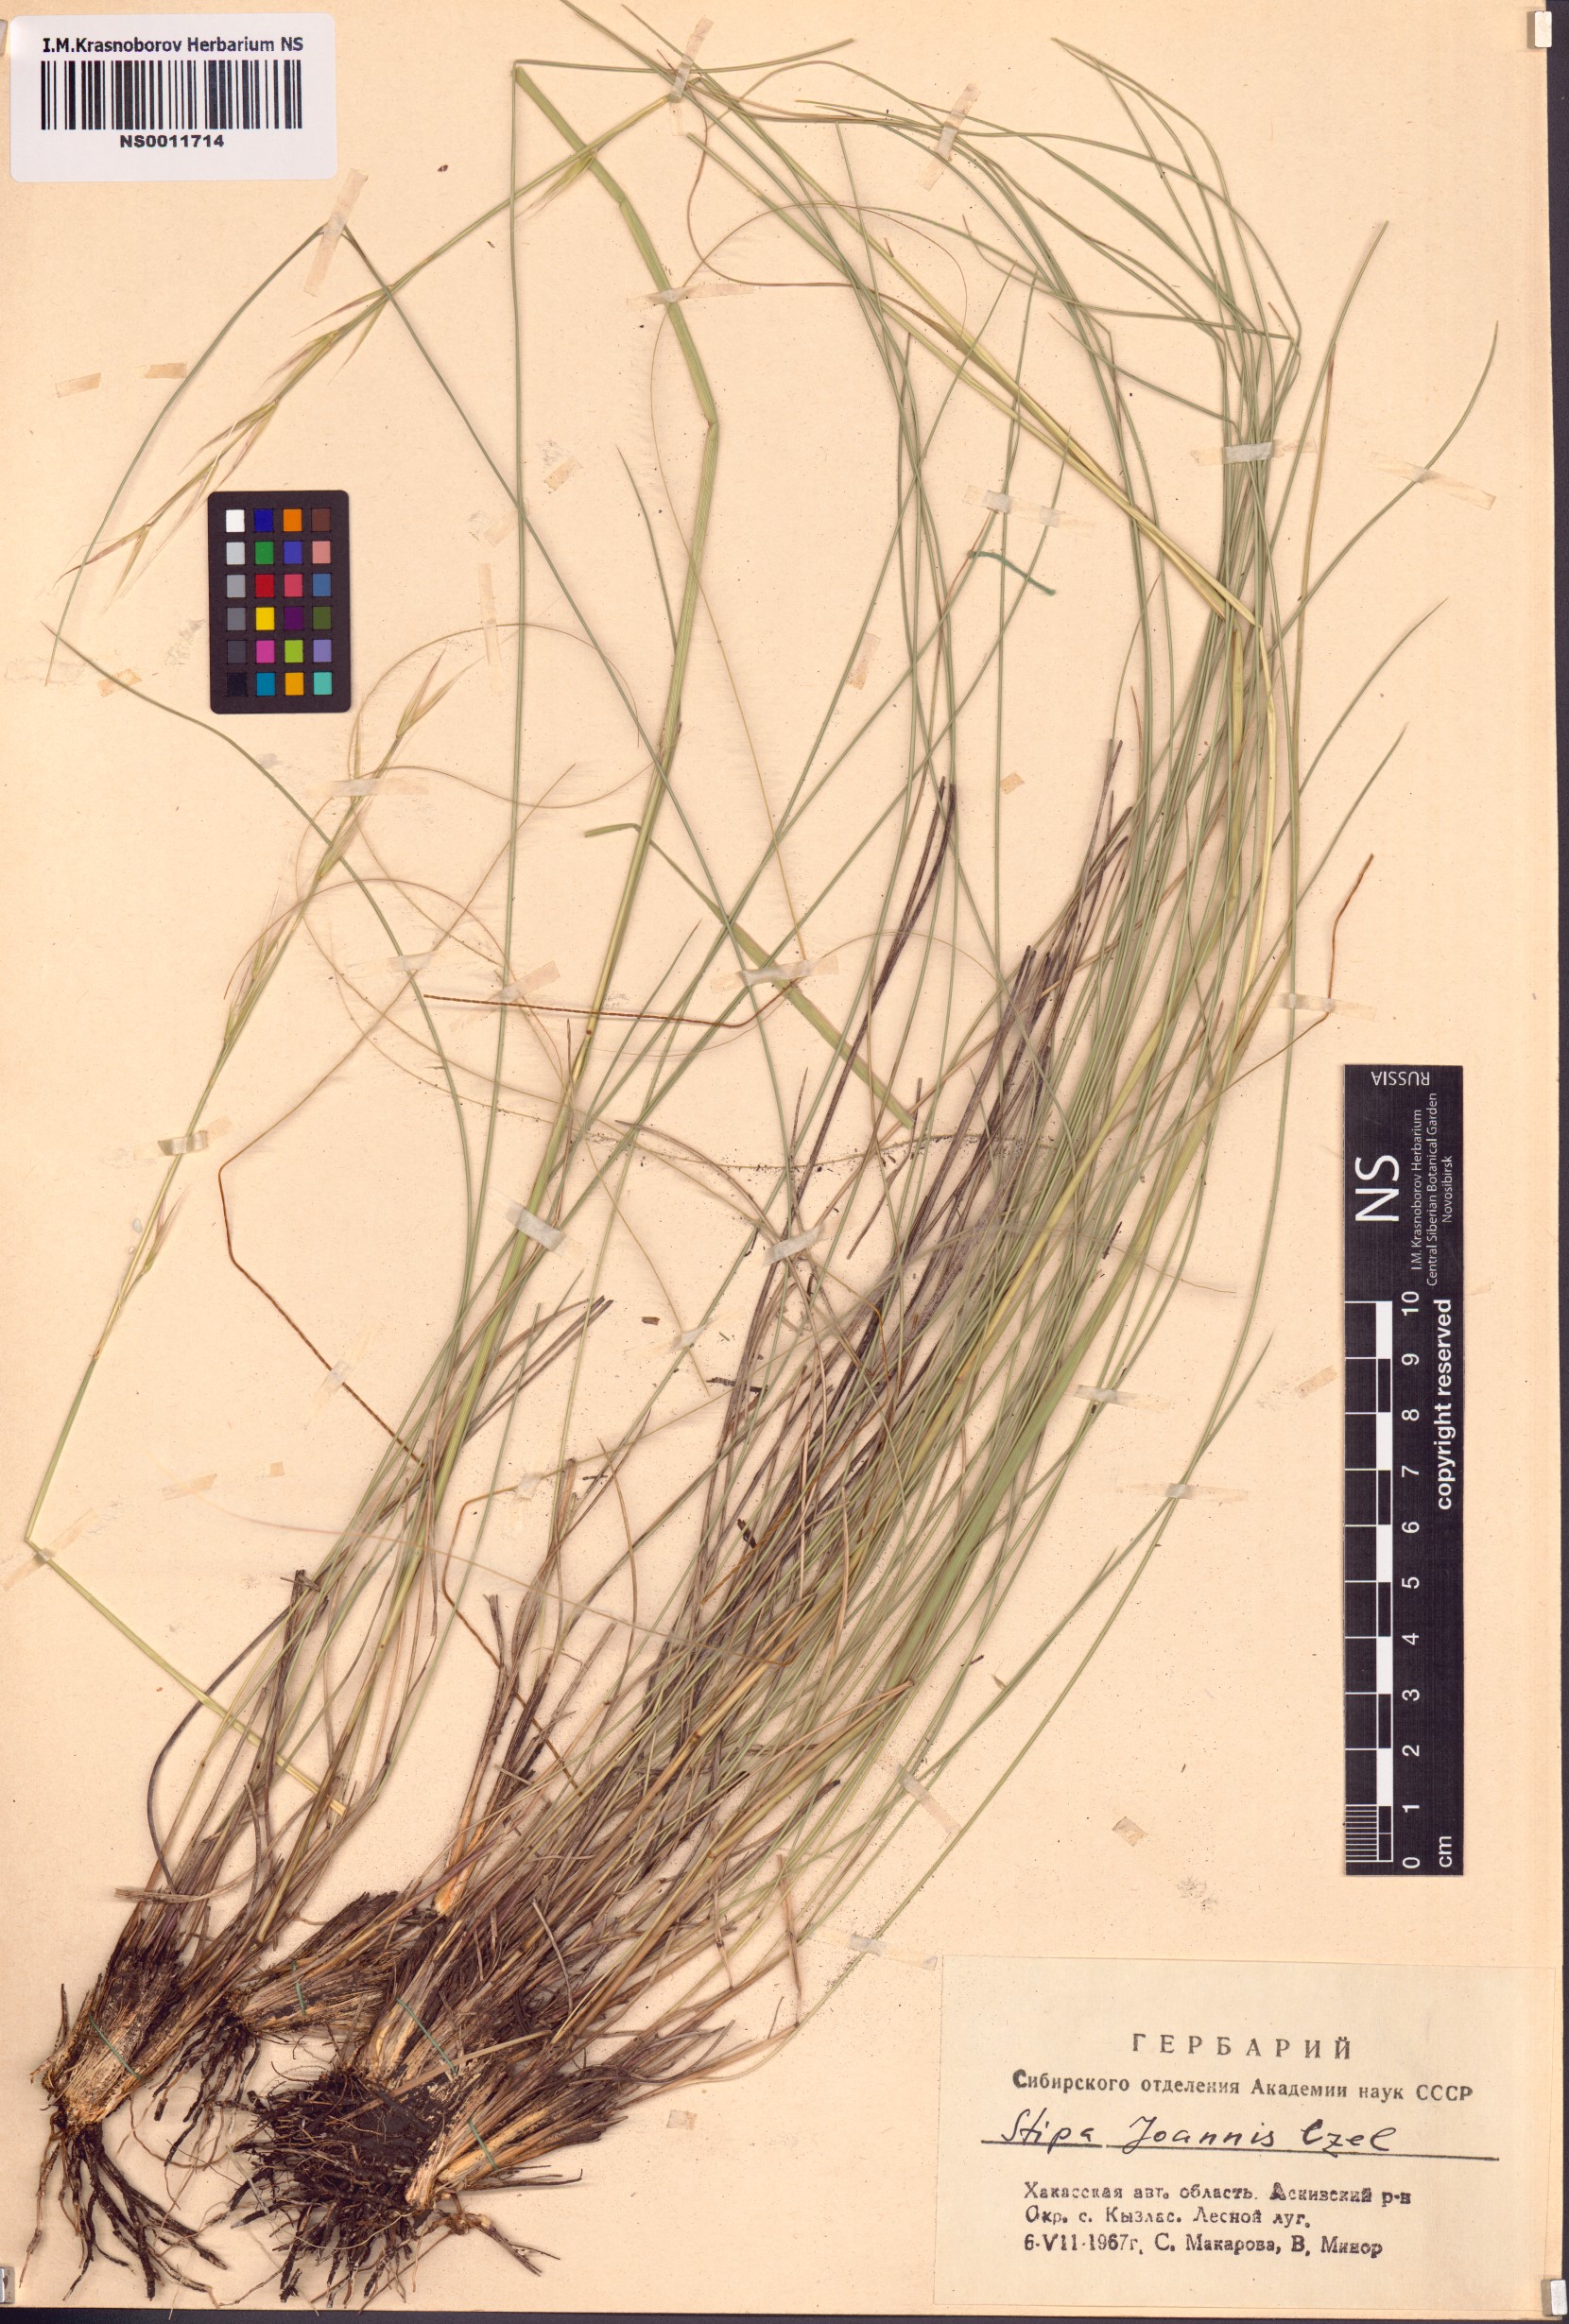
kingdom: Plantae
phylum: Tracheophyta
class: Liliopsida
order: Poales
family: Poaceae
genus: Stipa
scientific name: Stipa pennata
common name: European feather grass
